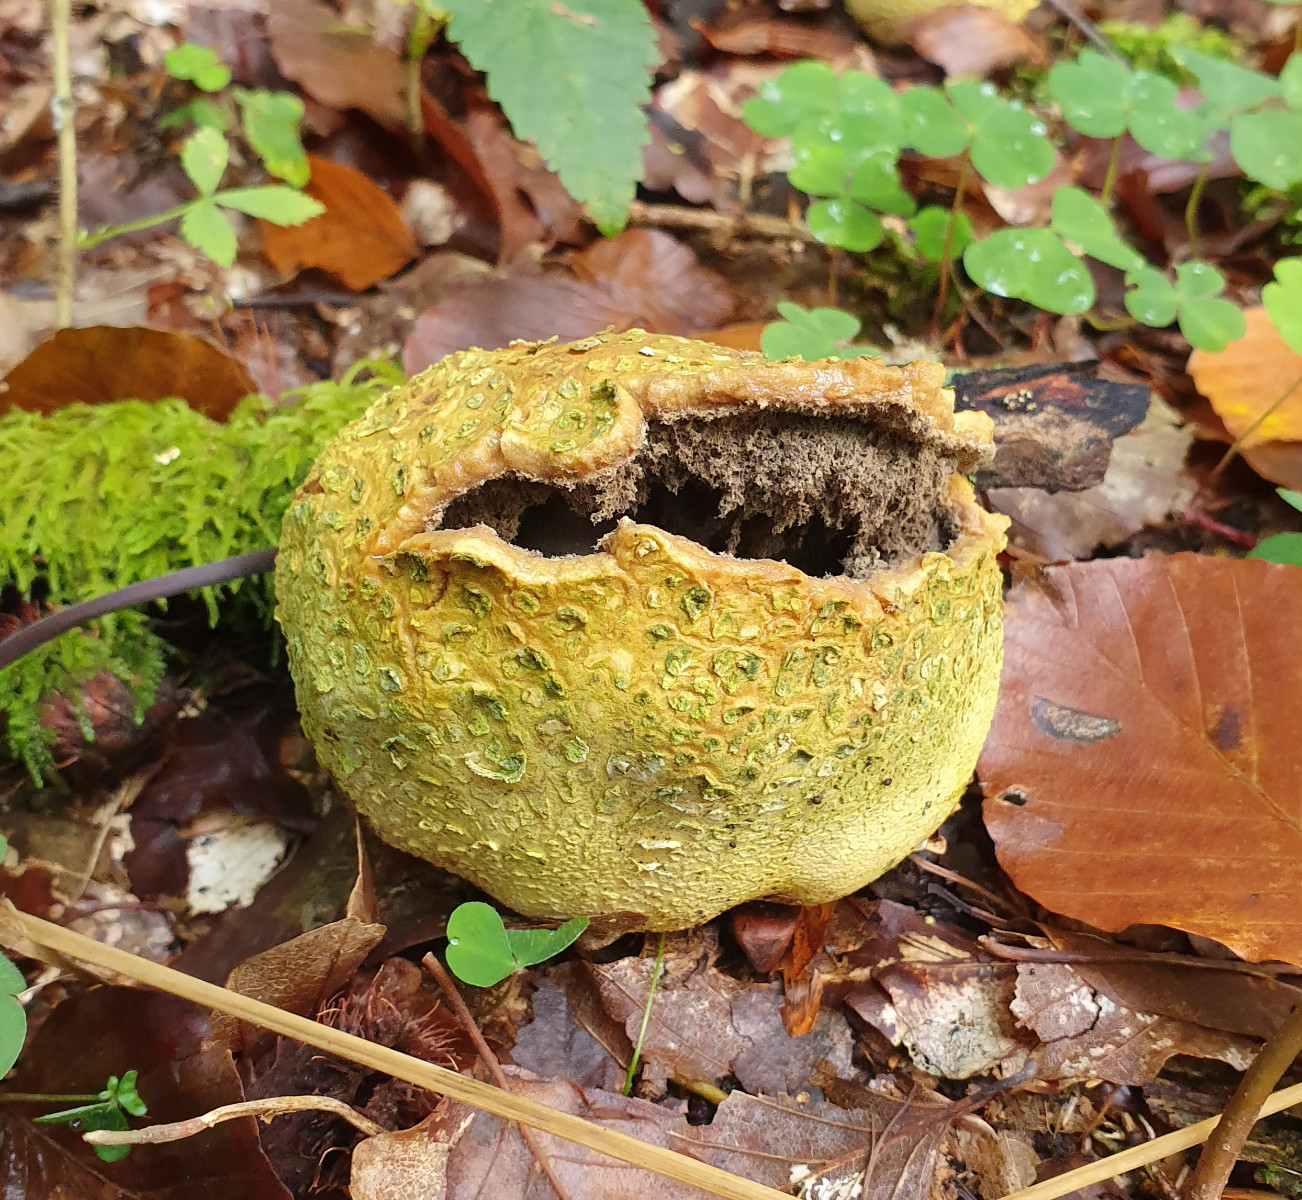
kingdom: Fungi
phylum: Basidiomycota
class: Agaricomycetes
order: Boletales
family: Sclerodermataceae
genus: Scleroderma
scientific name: Scleroderma citrinum
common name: almindelig bruskbold
